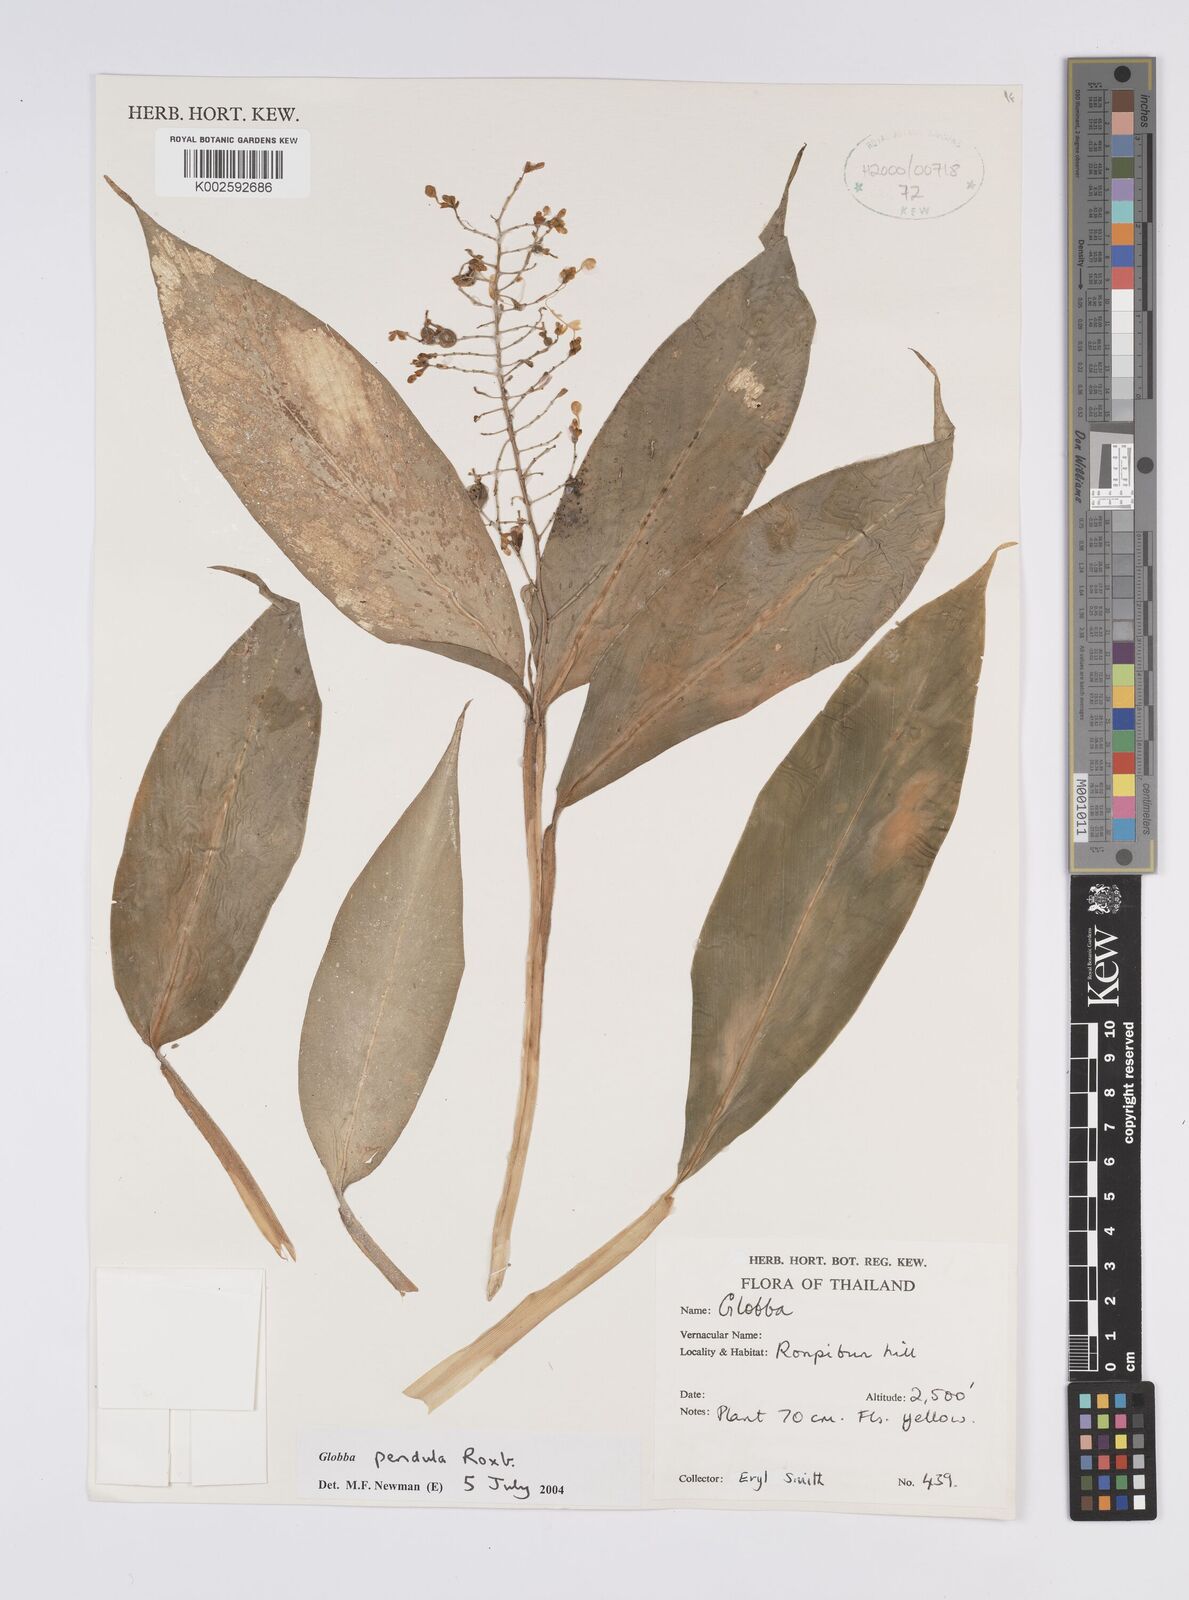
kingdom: Plantae
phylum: Tracheophyta
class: Liliopsida
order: Zingiberales
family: Zingiberaceae
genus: Globba
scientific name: Globba pendula
